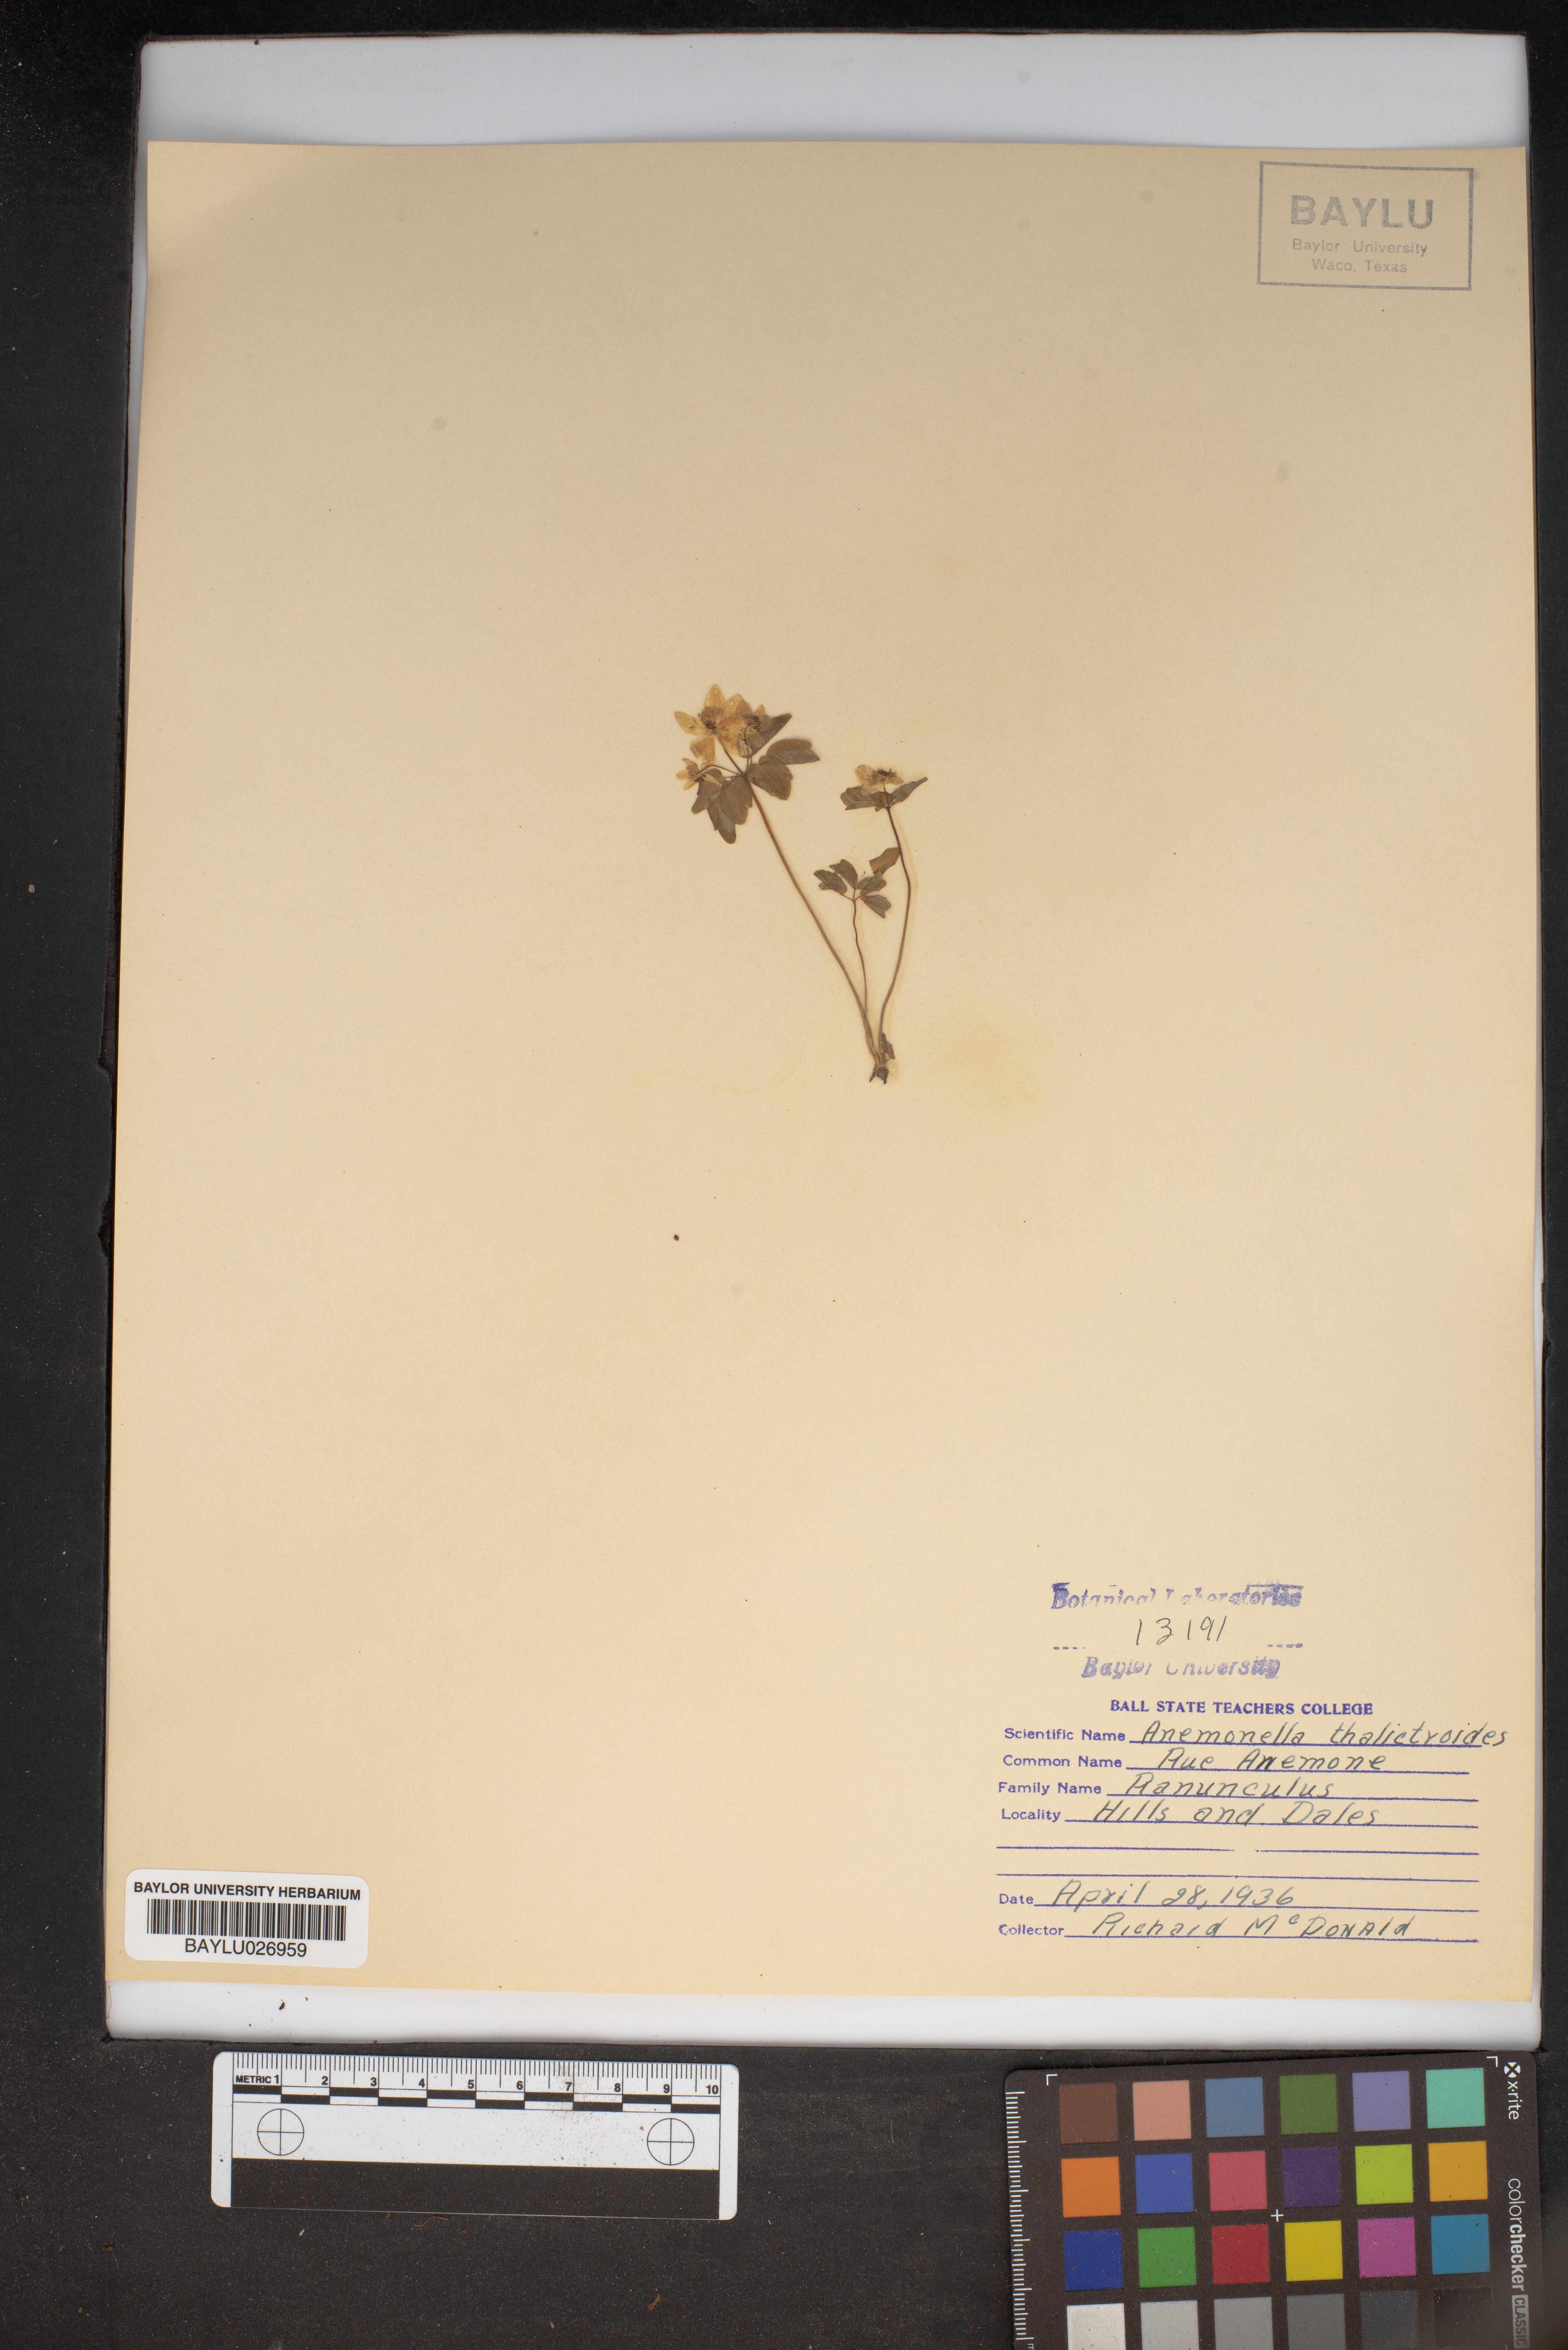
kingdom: Plantae
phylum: Tracheophyta
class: Magnoliopsida
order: Ranunculales
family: Ranunculaceae
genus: Thalictrum
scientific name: Thalictrum thalictroides
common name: Rue-anemone
